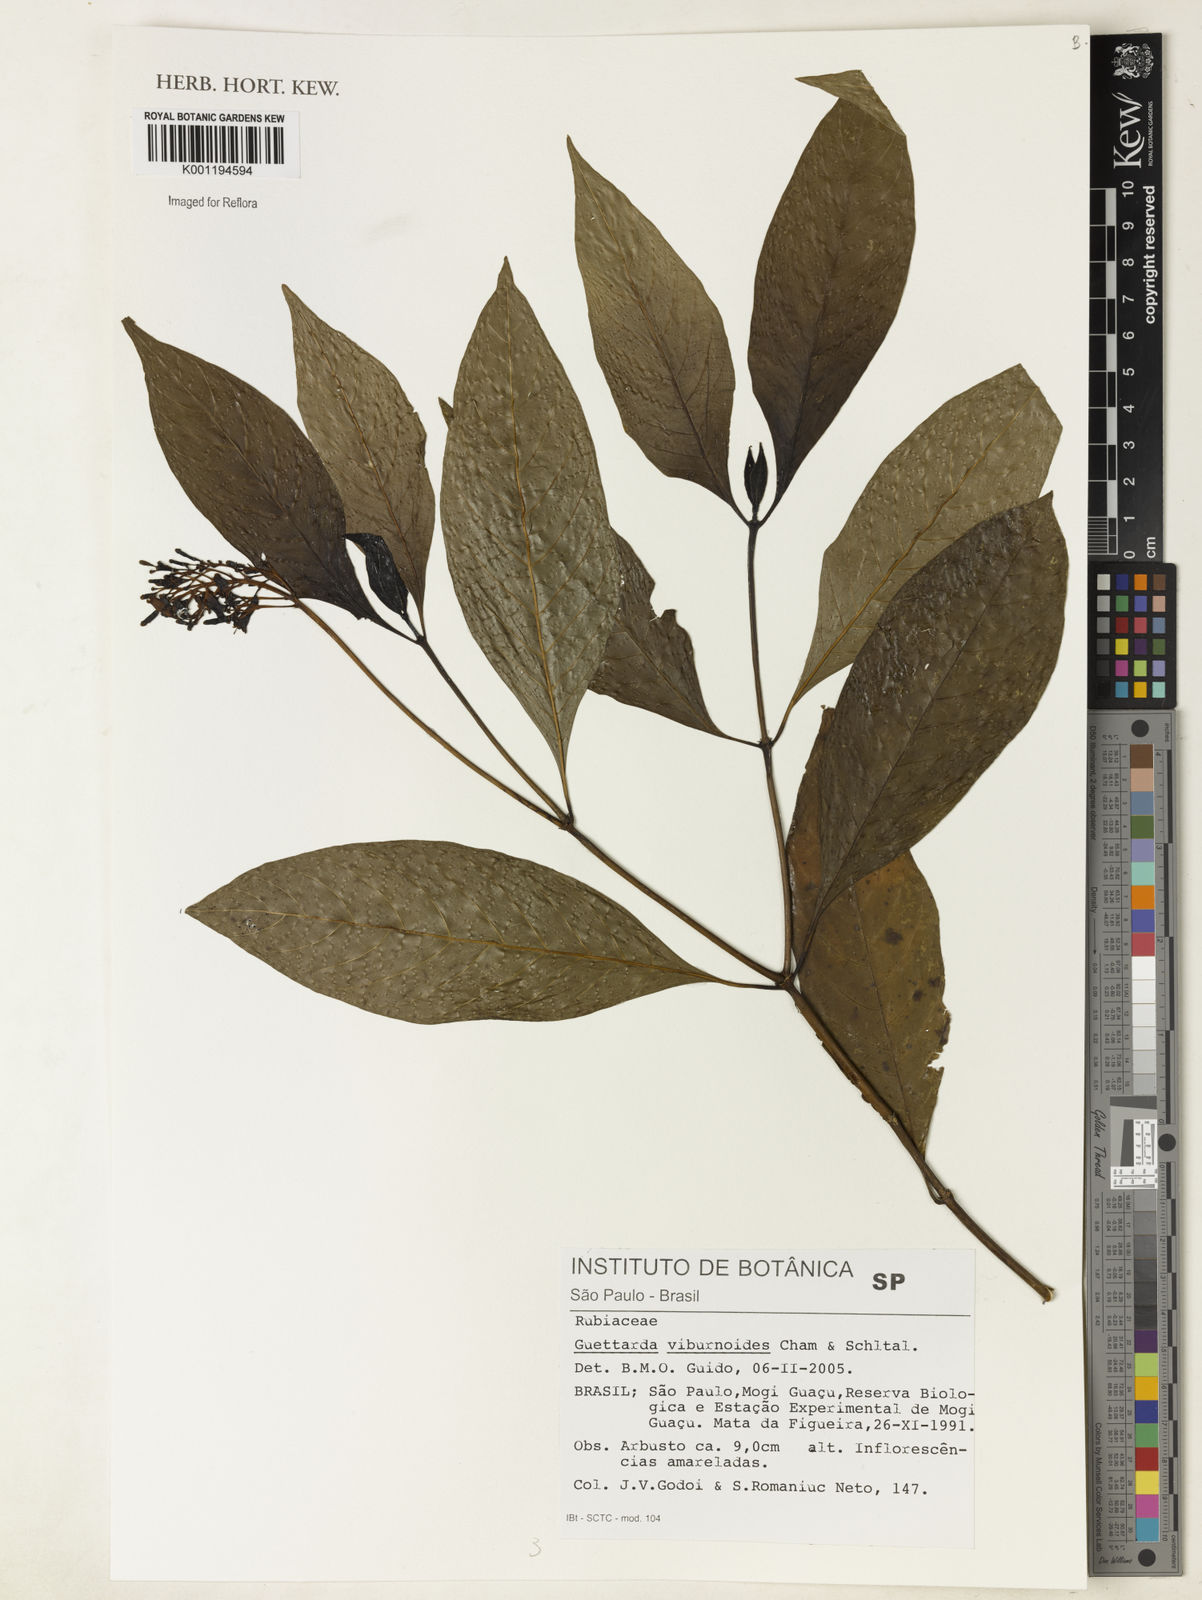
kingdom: Plantae
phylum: Tracheophyta
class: Magnoliopsida
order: Gentianales
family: Rubiaceae
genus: Guettarda
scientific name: Guettarda viburnoides
